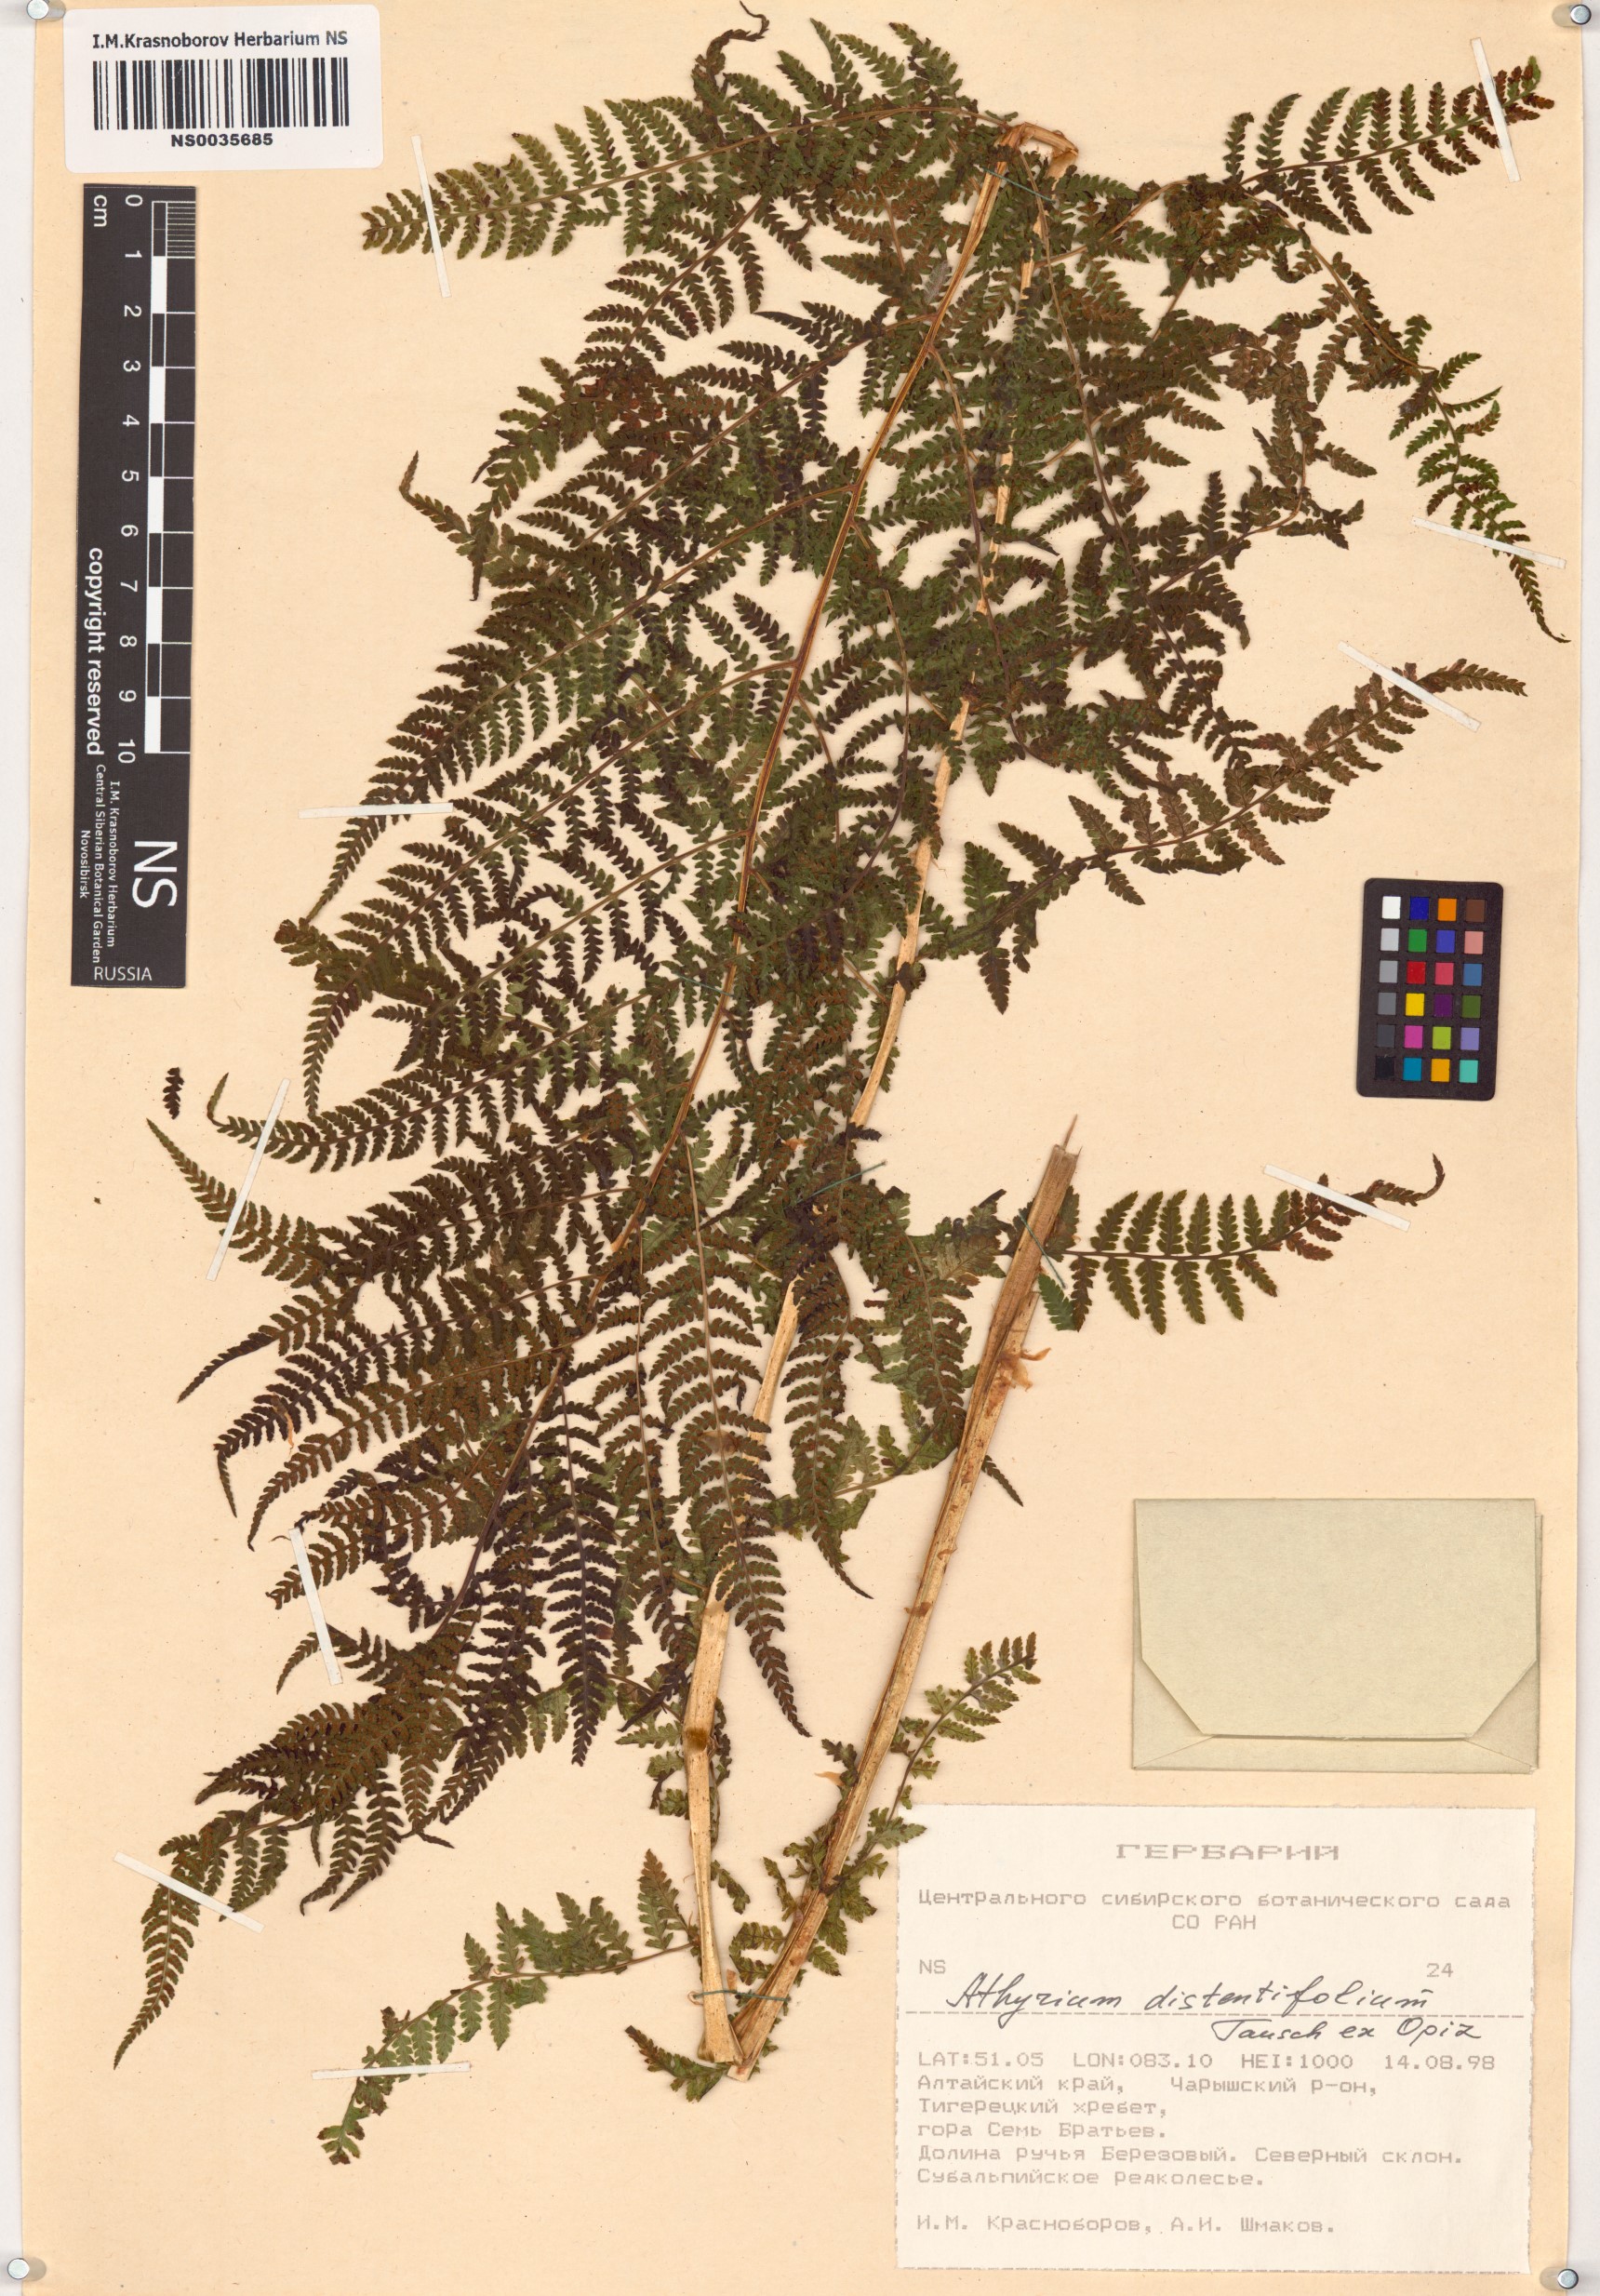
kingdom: Plantae
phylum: Tracheophyta
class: Polypodiopsida
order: Polypodiales
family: Athyriaceae
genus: Pseudathyrium
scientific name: Pseudathyrium alpestre
